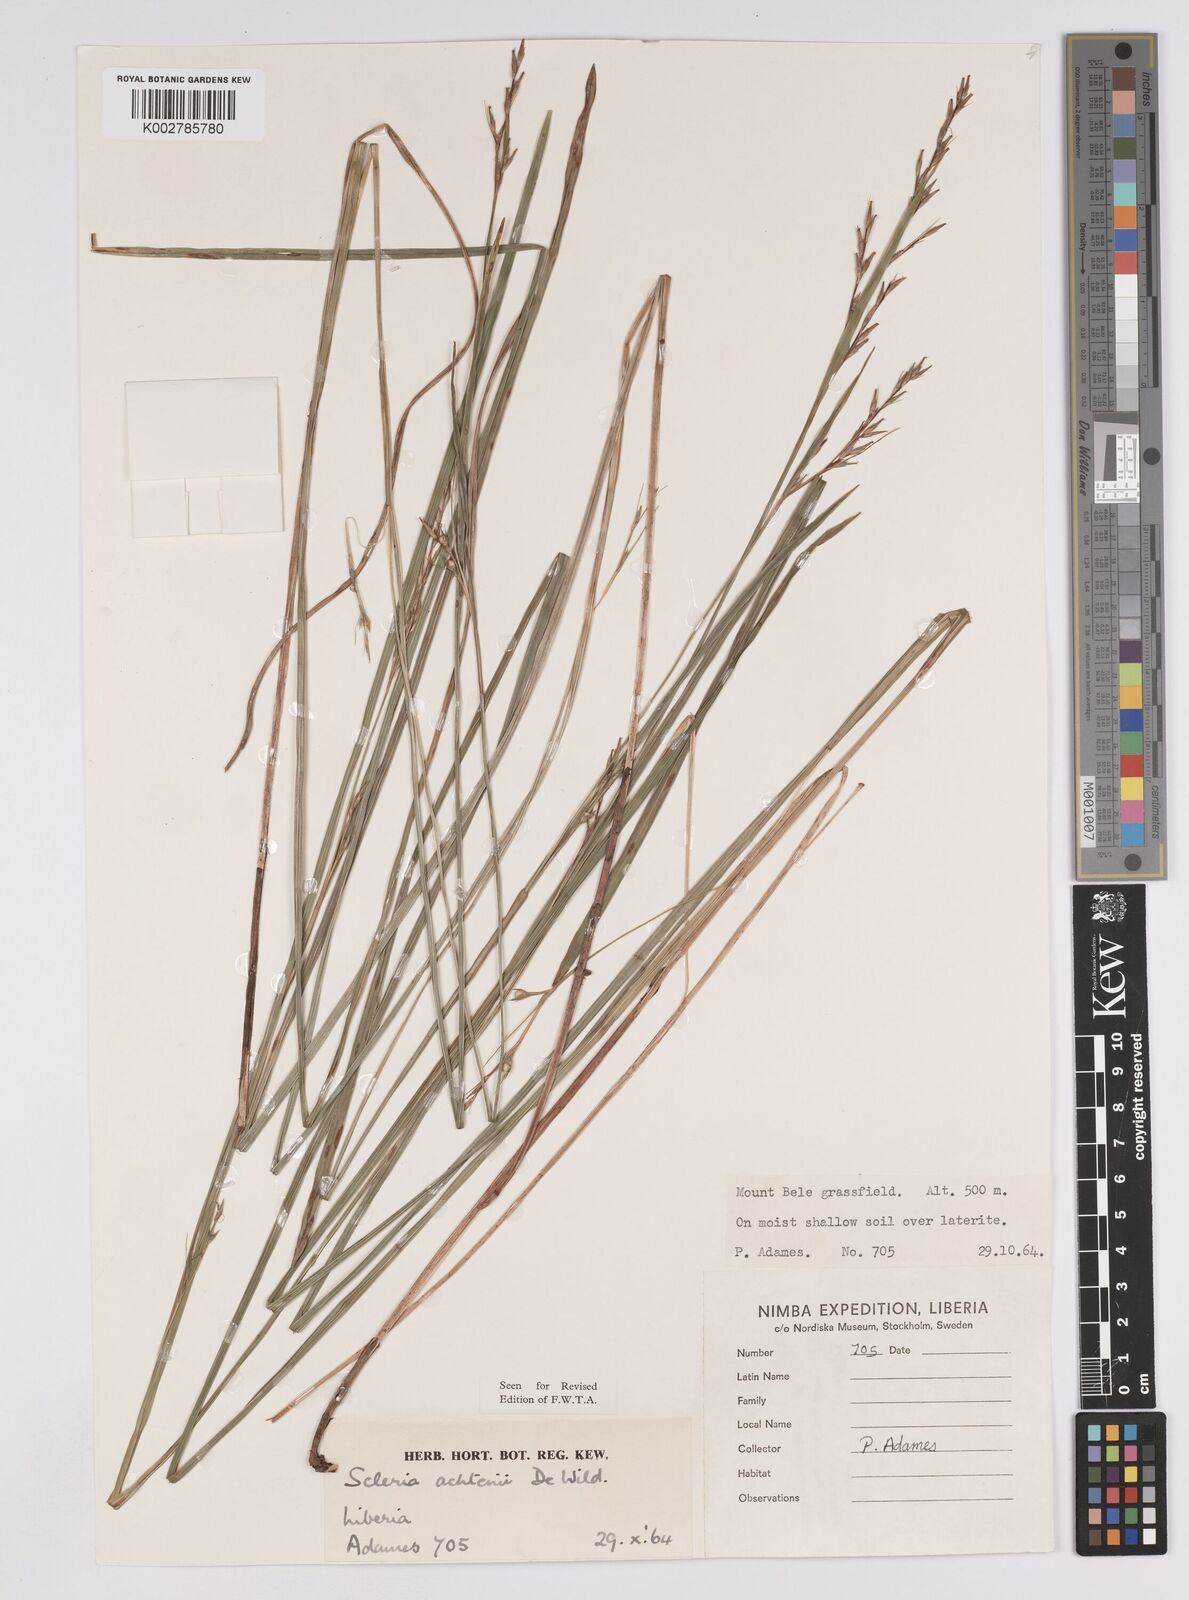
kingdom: Plantae
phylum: Tracheophyta
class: Liliopsida
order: Poales
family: Cyperaceae
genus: Scleria
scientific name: Scleria achtenii
